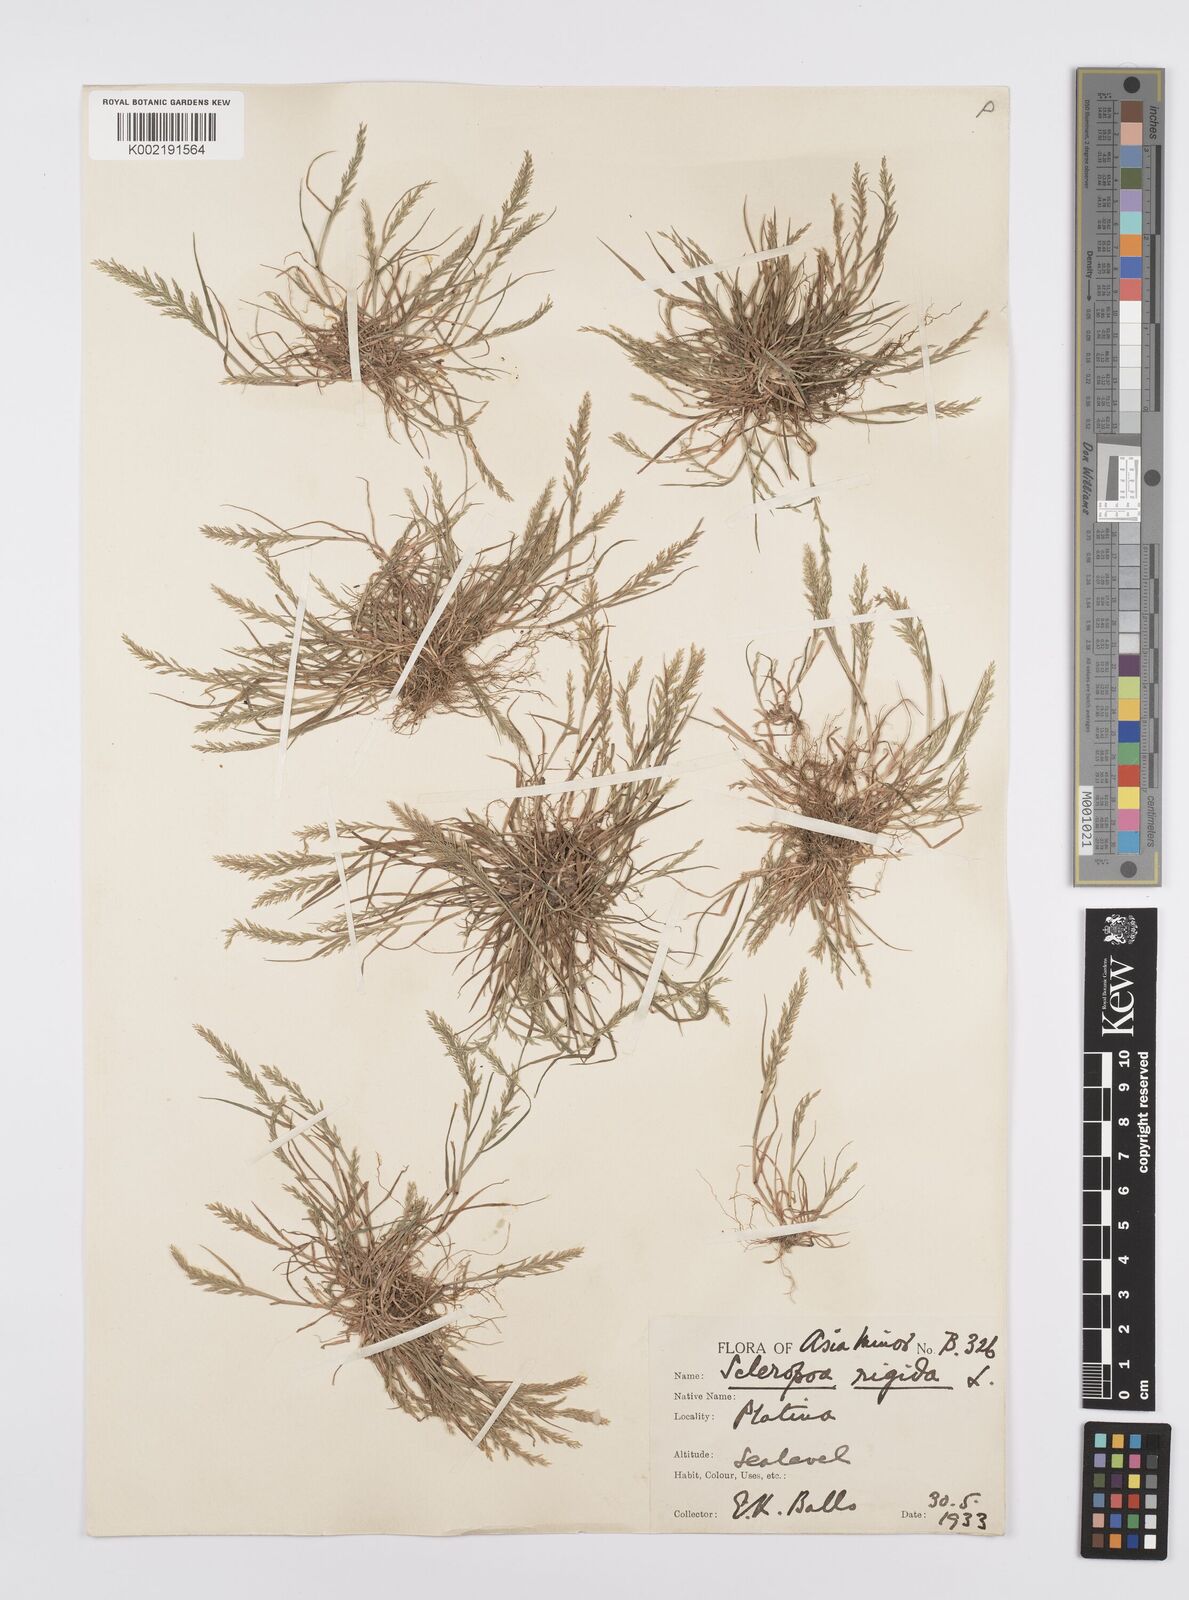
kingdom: Plantae
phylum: Tracheophyta
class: Liliopsida
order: Poales
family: Poaceae
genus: Catapodium
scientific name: Catapodium rigidum
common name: Fern-grass
